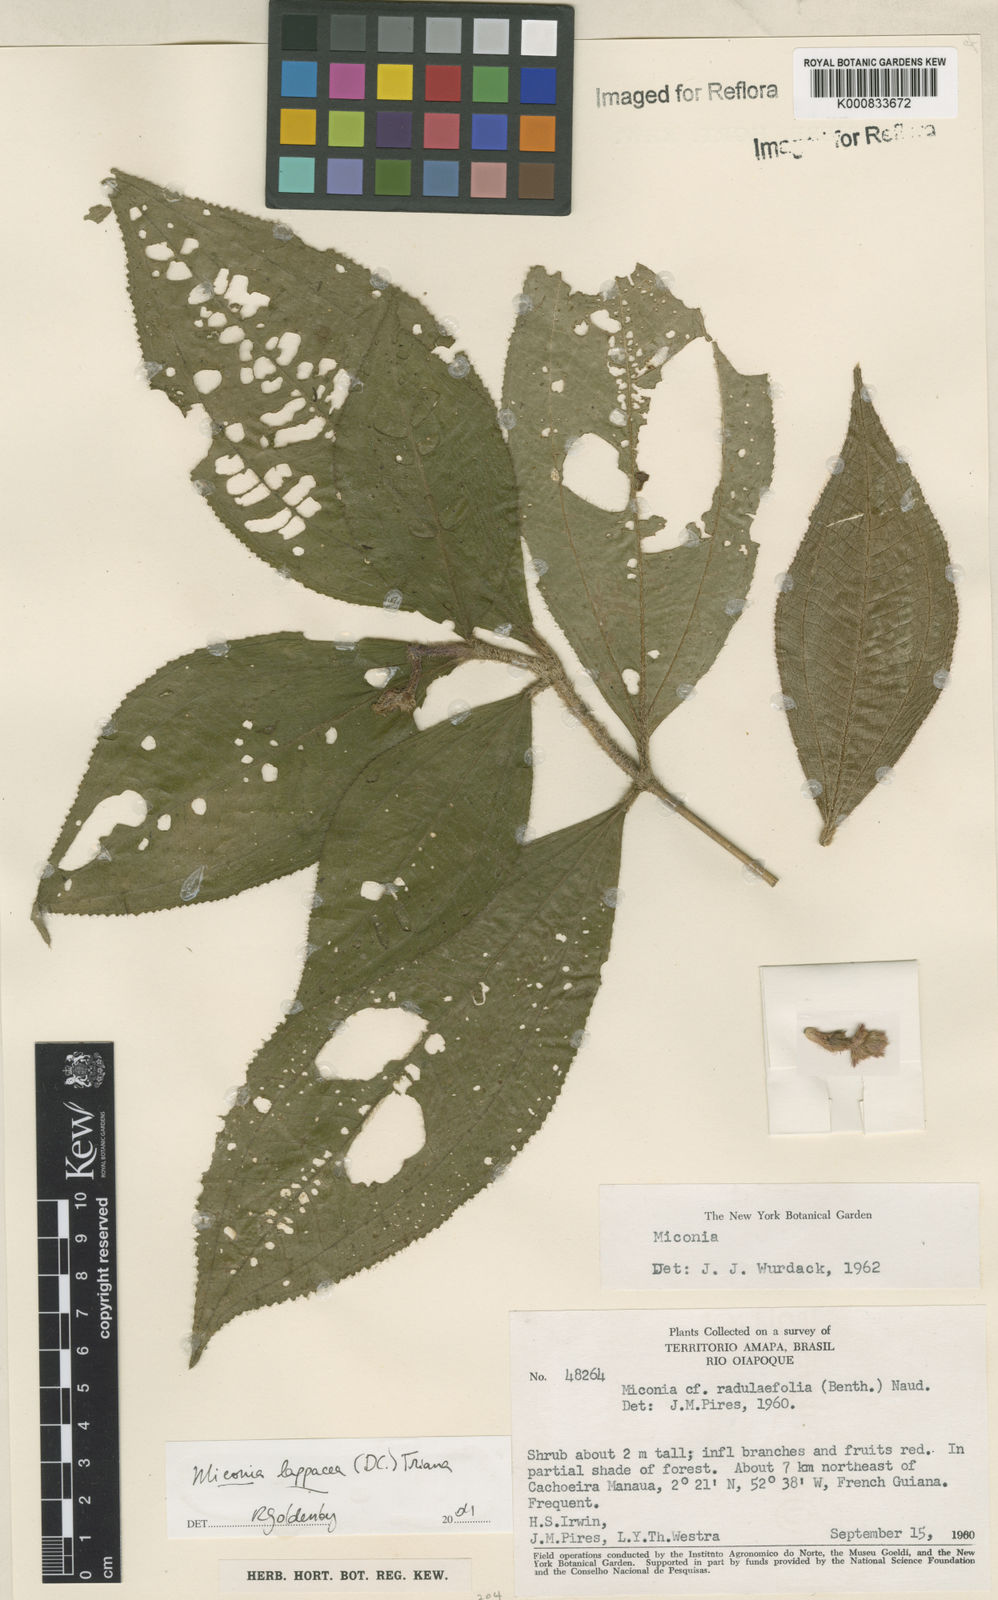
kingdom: Plantae
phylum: Tracheophyta
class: Magnoliopsida
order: Myrtales
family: Melastomataceae
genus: Miconia
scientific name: Miconia lappacea
